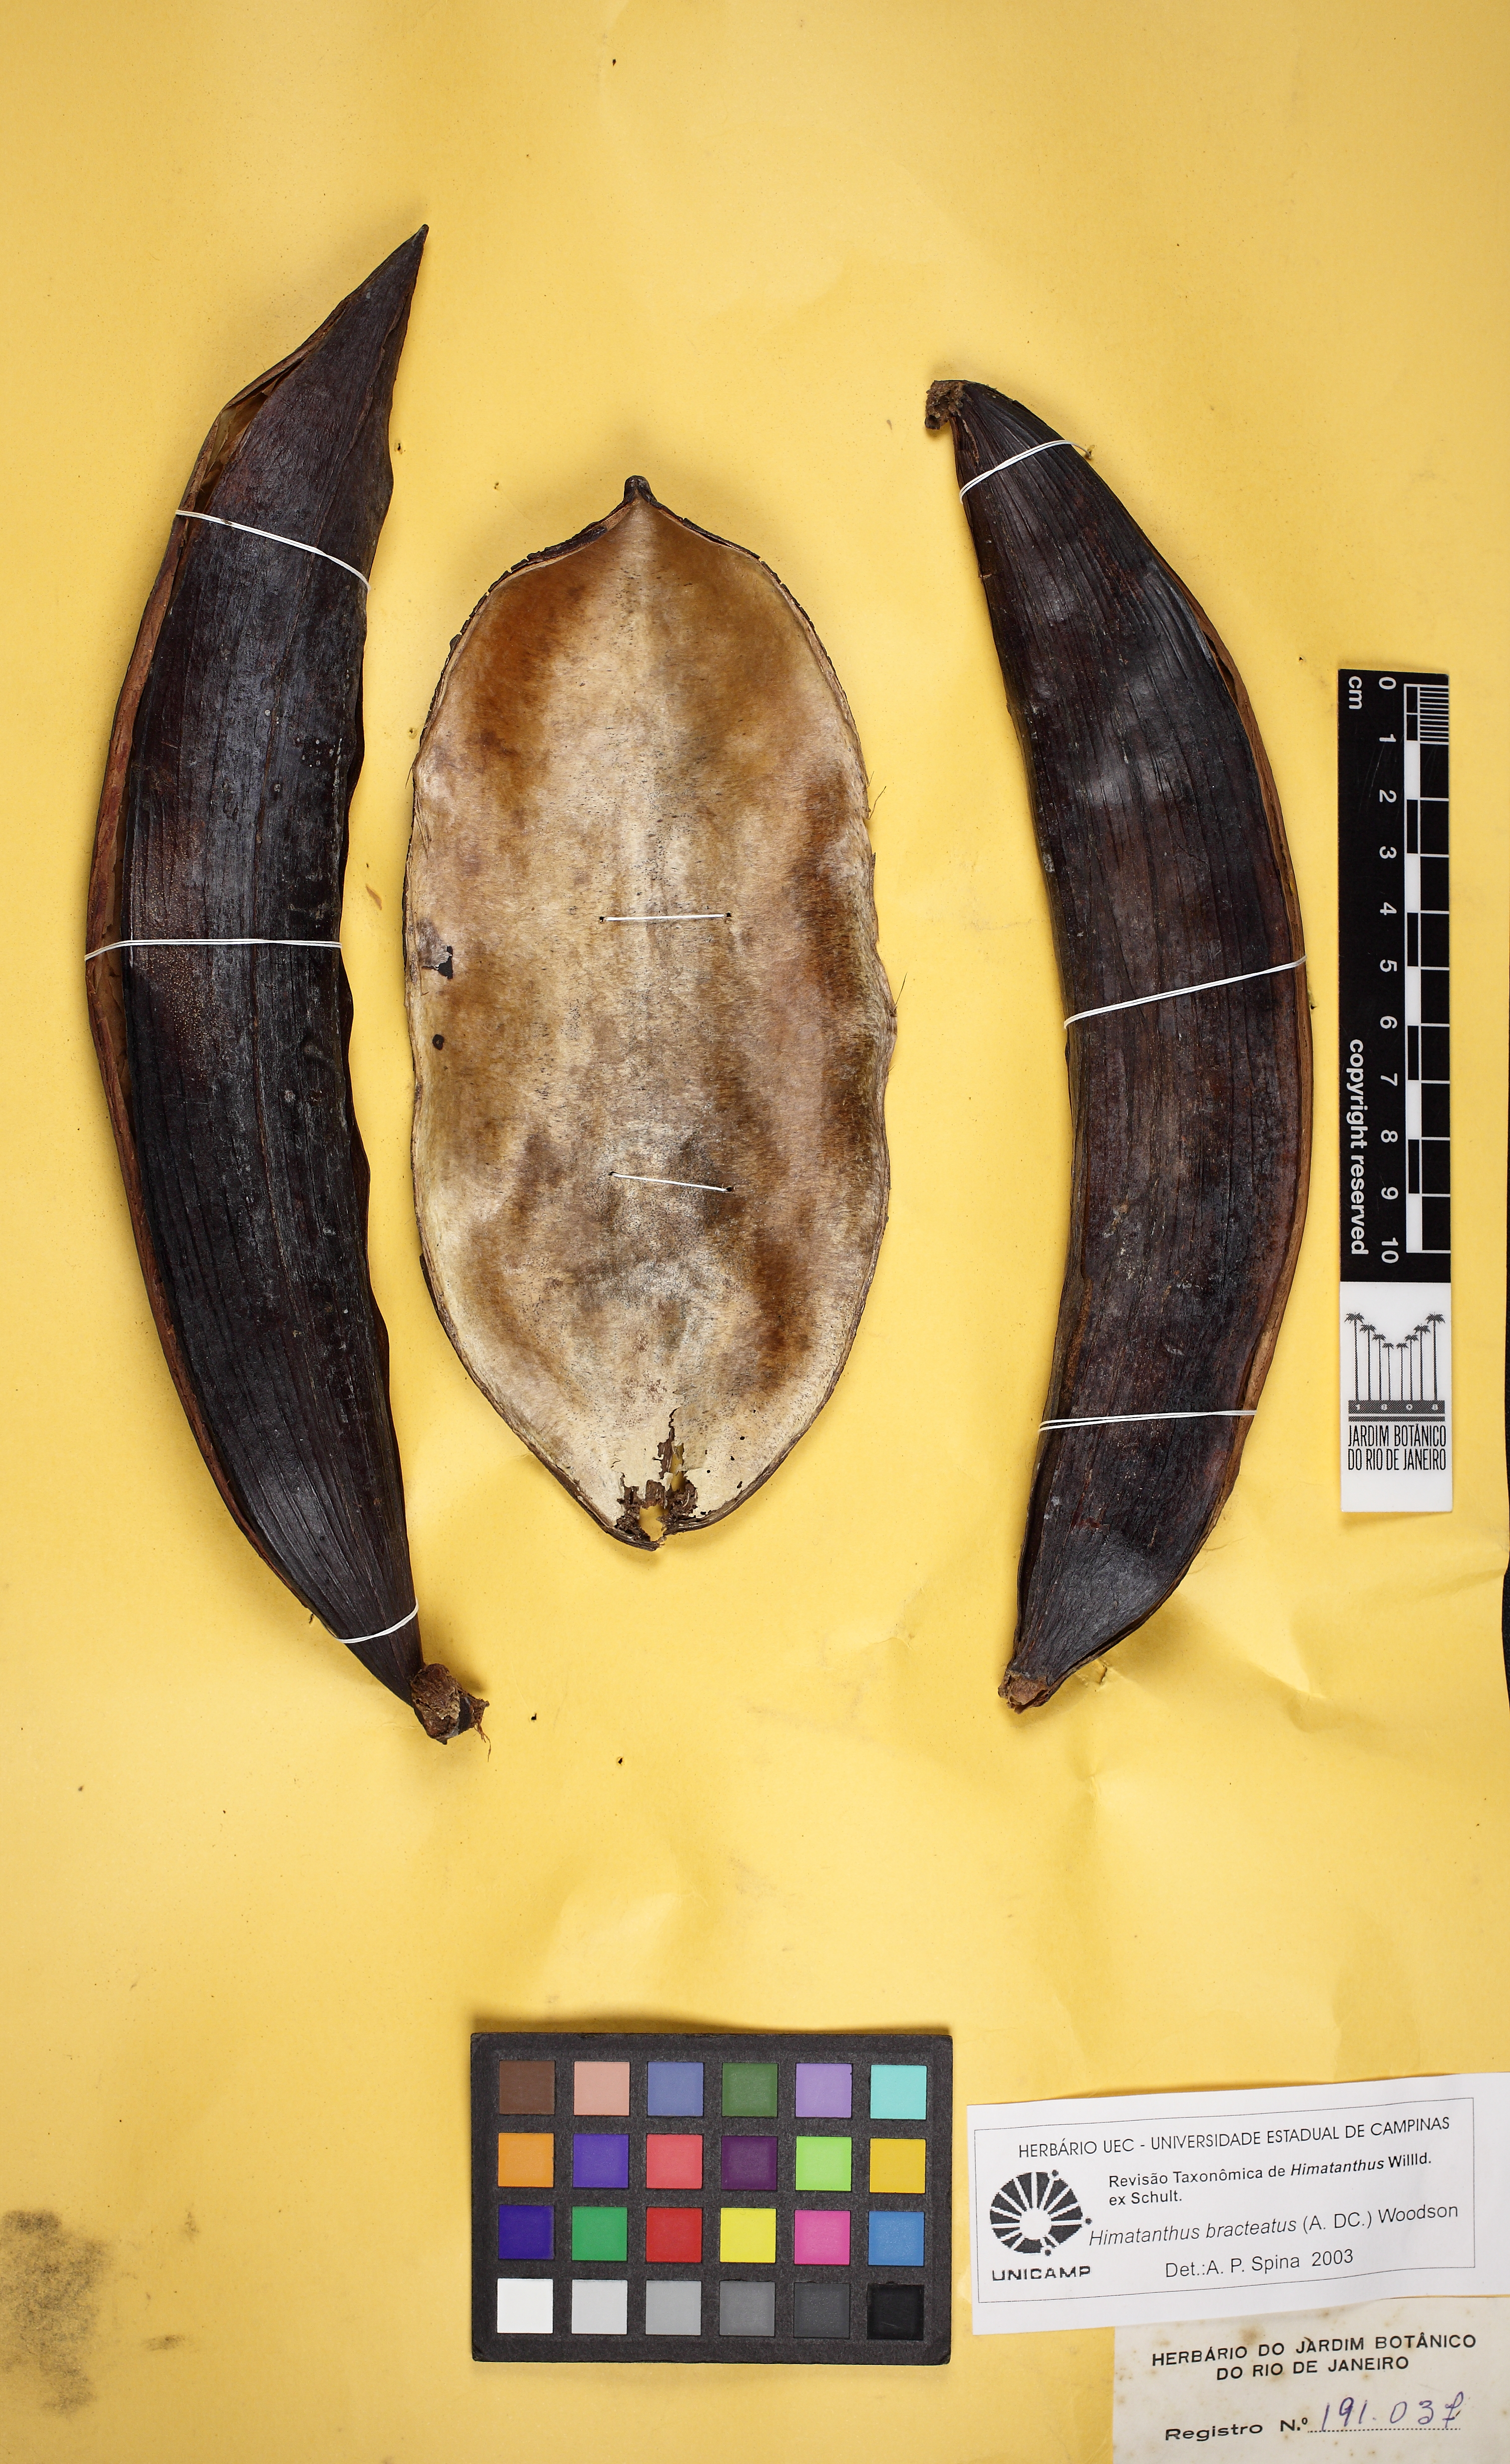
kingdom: Plantae
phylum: Tracheophyta
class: Magnoliopsida
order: Gentianales
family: Apocynaceae
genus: Himatanthus
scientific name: Himatanthus bracteatus
